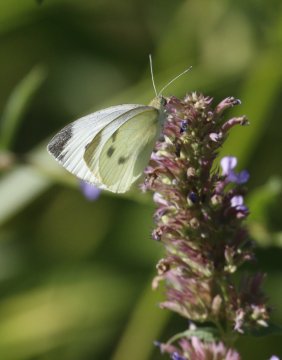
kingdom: Animalia
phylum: Arthropoda
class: Insecta
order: Lepidoptera
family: Pieridae
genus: Pieris
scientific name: Pieris rapae
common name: Cabbage White
